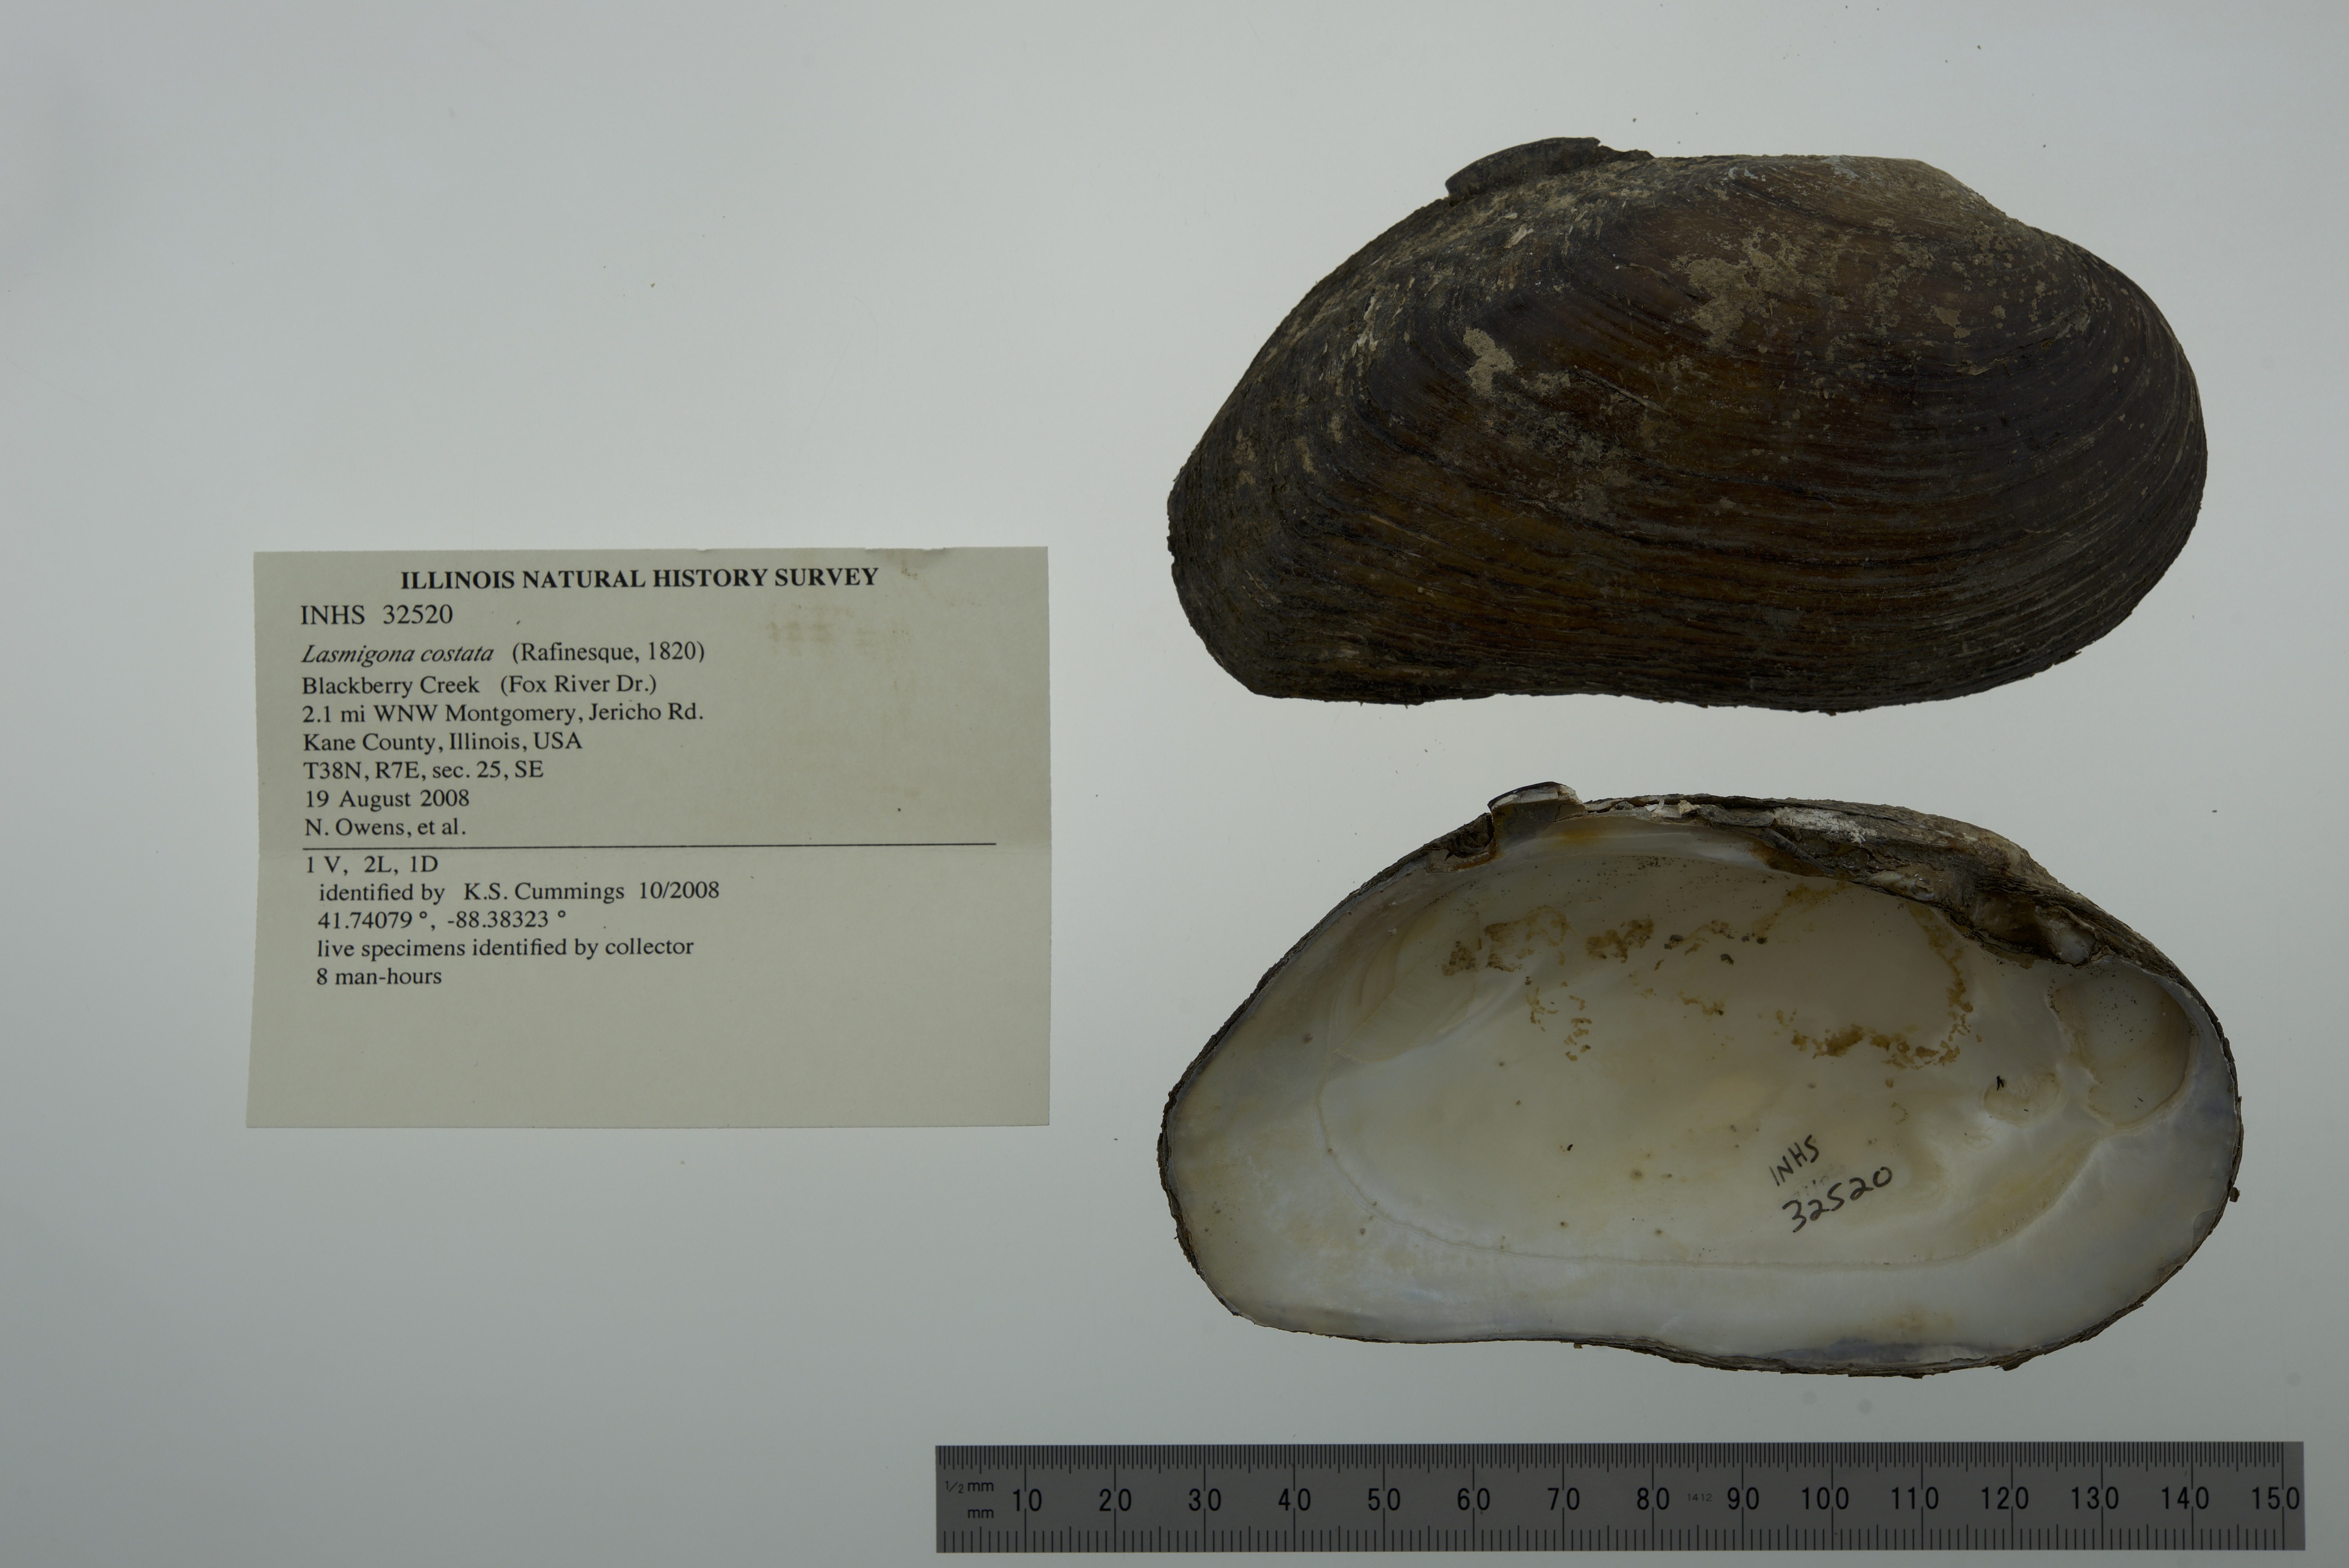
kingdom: Animalia
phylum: Mollusca
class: Bivalvia
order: Unionida
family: Unionidae
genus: Lasmigona
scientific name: Lasmigona costata
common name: Flutedshell
